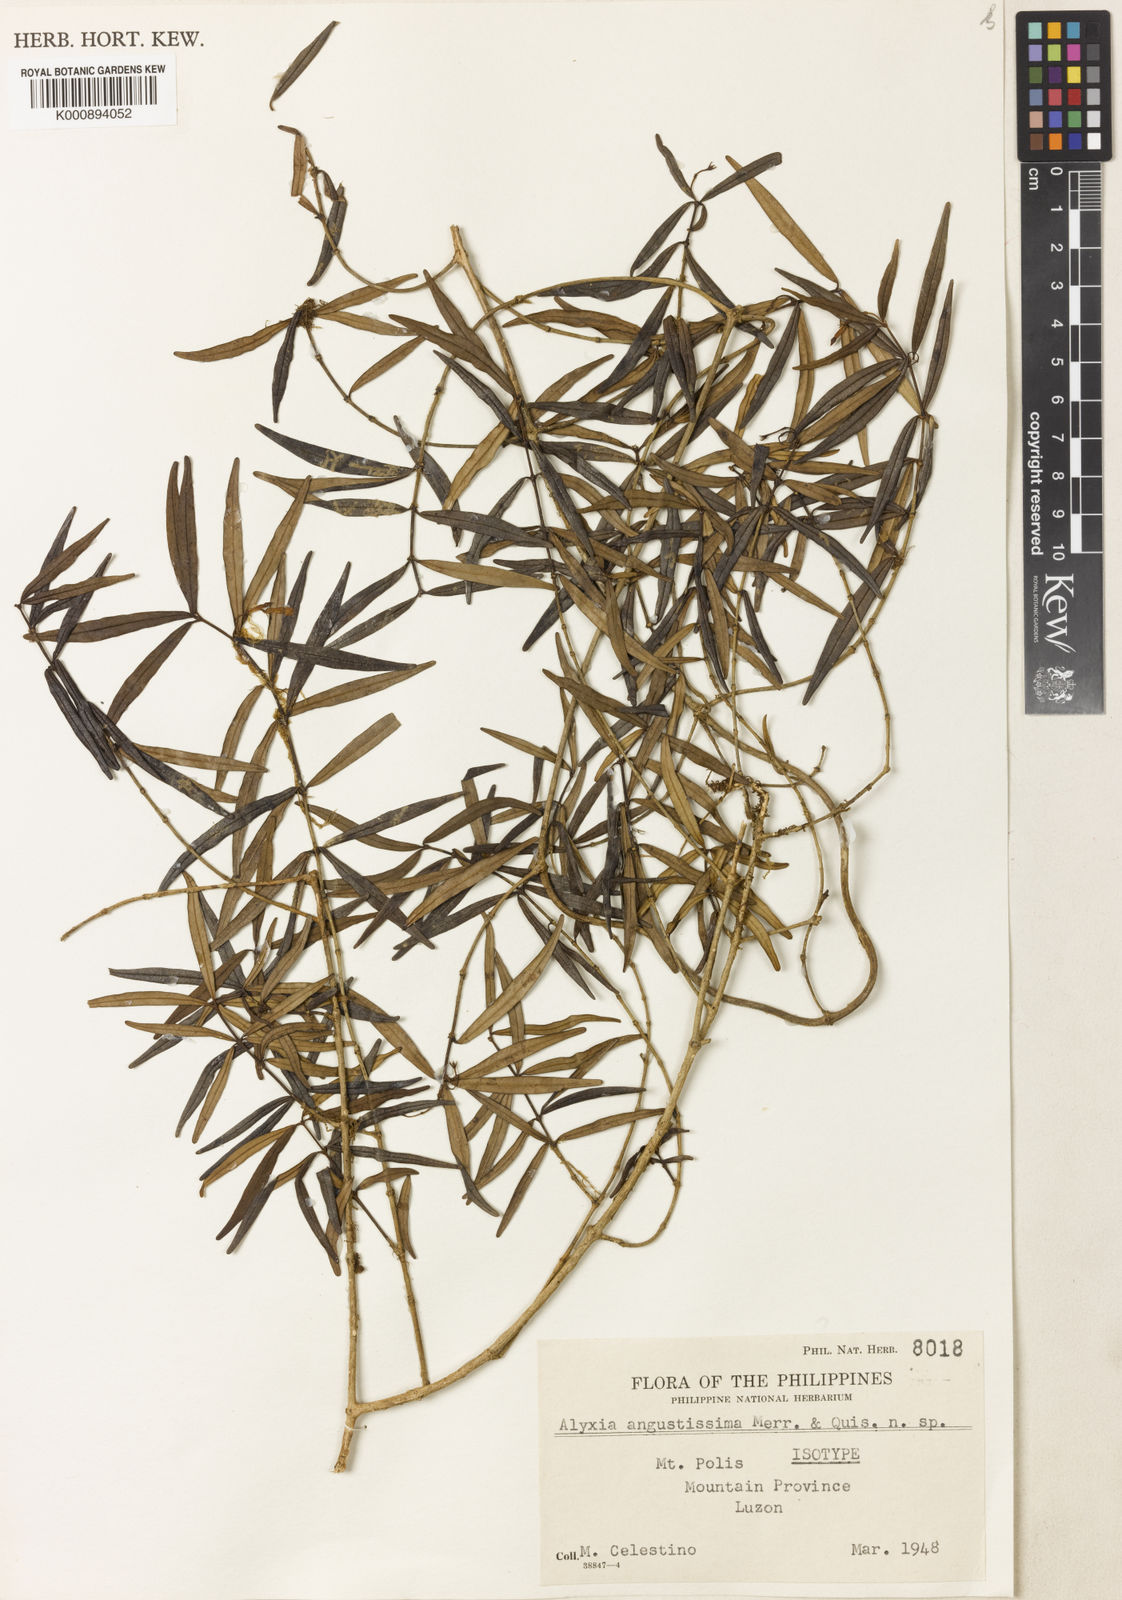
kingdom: Plantae
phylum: Tracheophyta
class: Magnoliopsida
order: Gentianales
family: Apocynaceae
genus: Alyxia
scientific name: Alyxia angustissima
